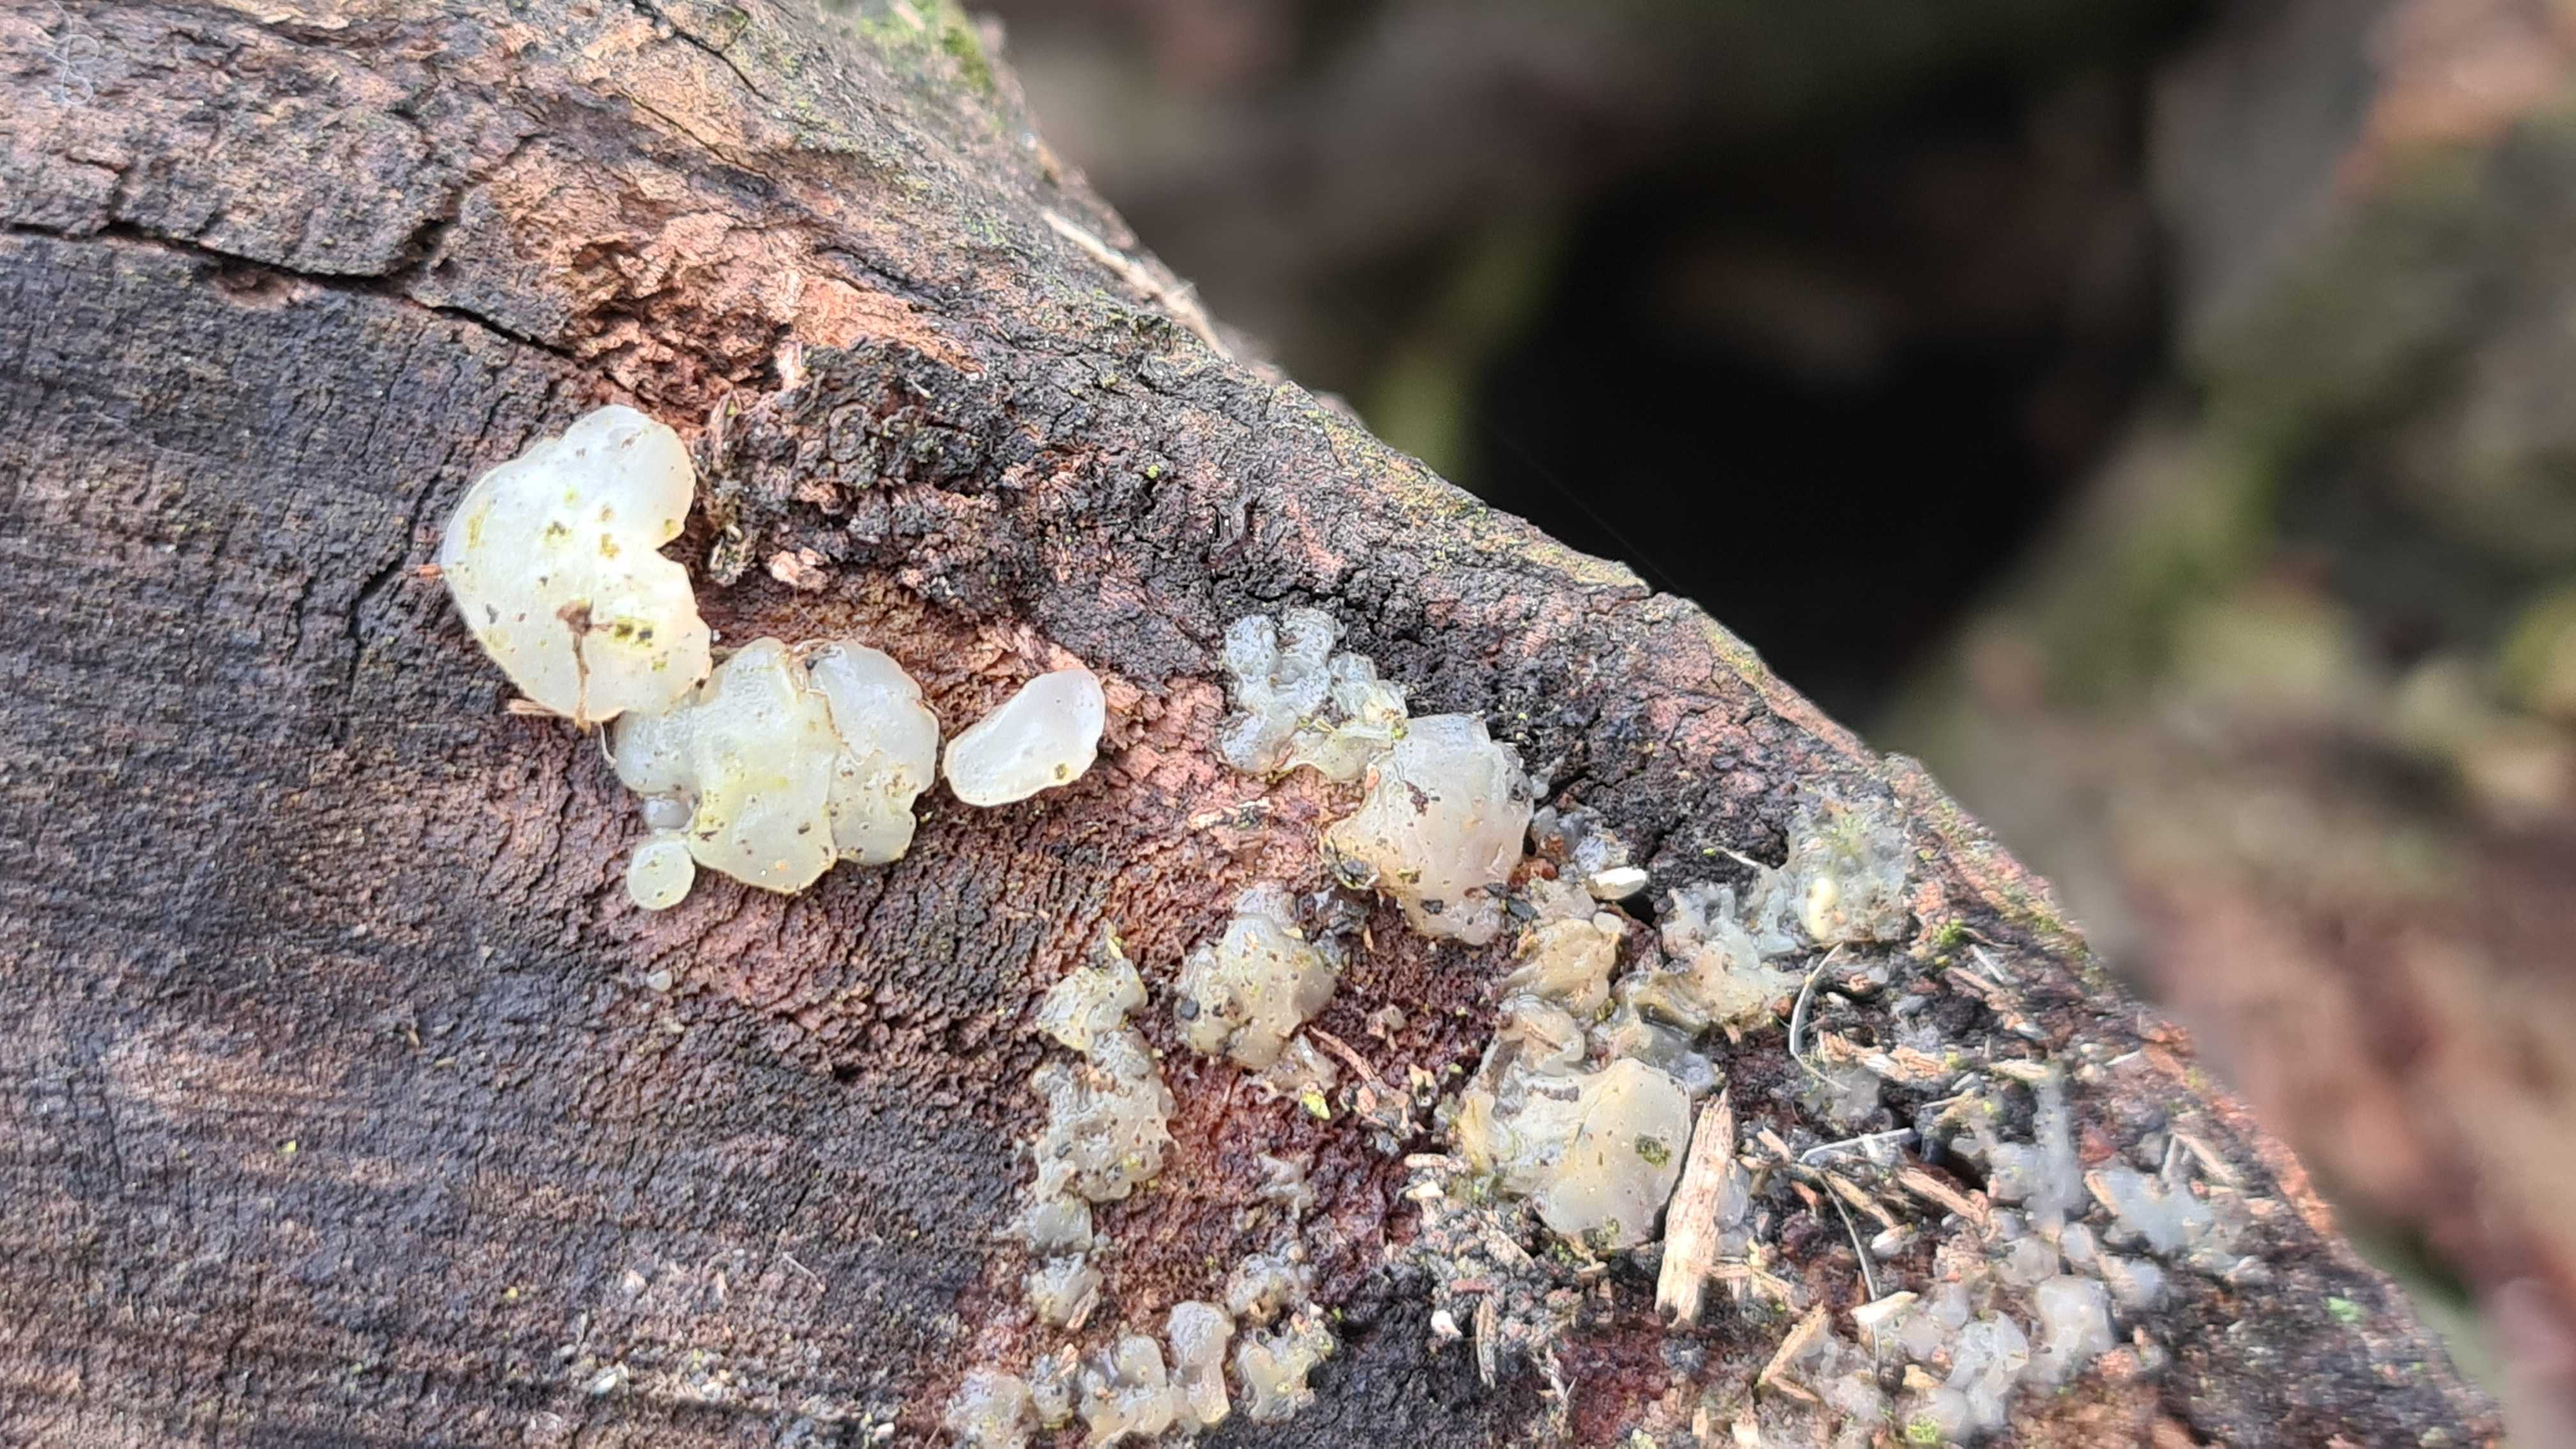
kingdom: Fungi
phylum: Basidiomycota
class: Agaricomycetes
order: Auriculariales
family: Auriculariaceae
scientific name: Auriculariaceae
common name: judasørefamilien
